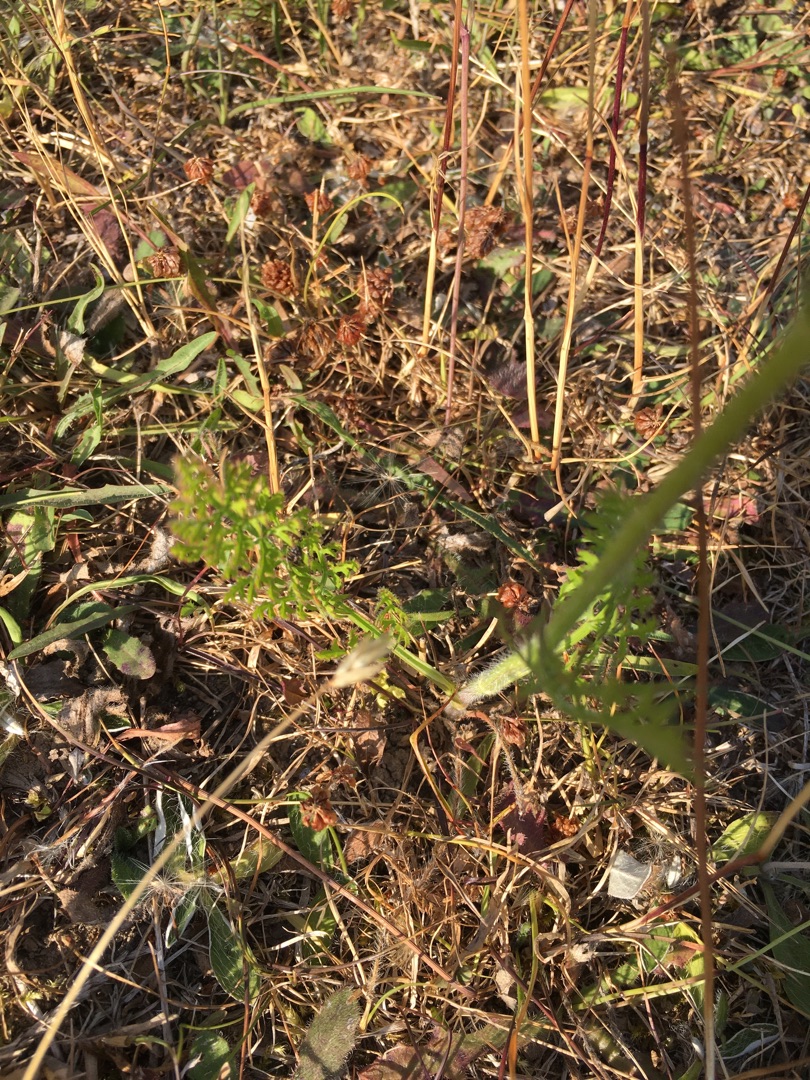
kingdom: Plantae
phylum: Tracheophyta
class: Magnoliopsida
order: Apiales
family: Apiaceae
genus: Daucus
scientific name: Daucus carota
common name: Gulerod
